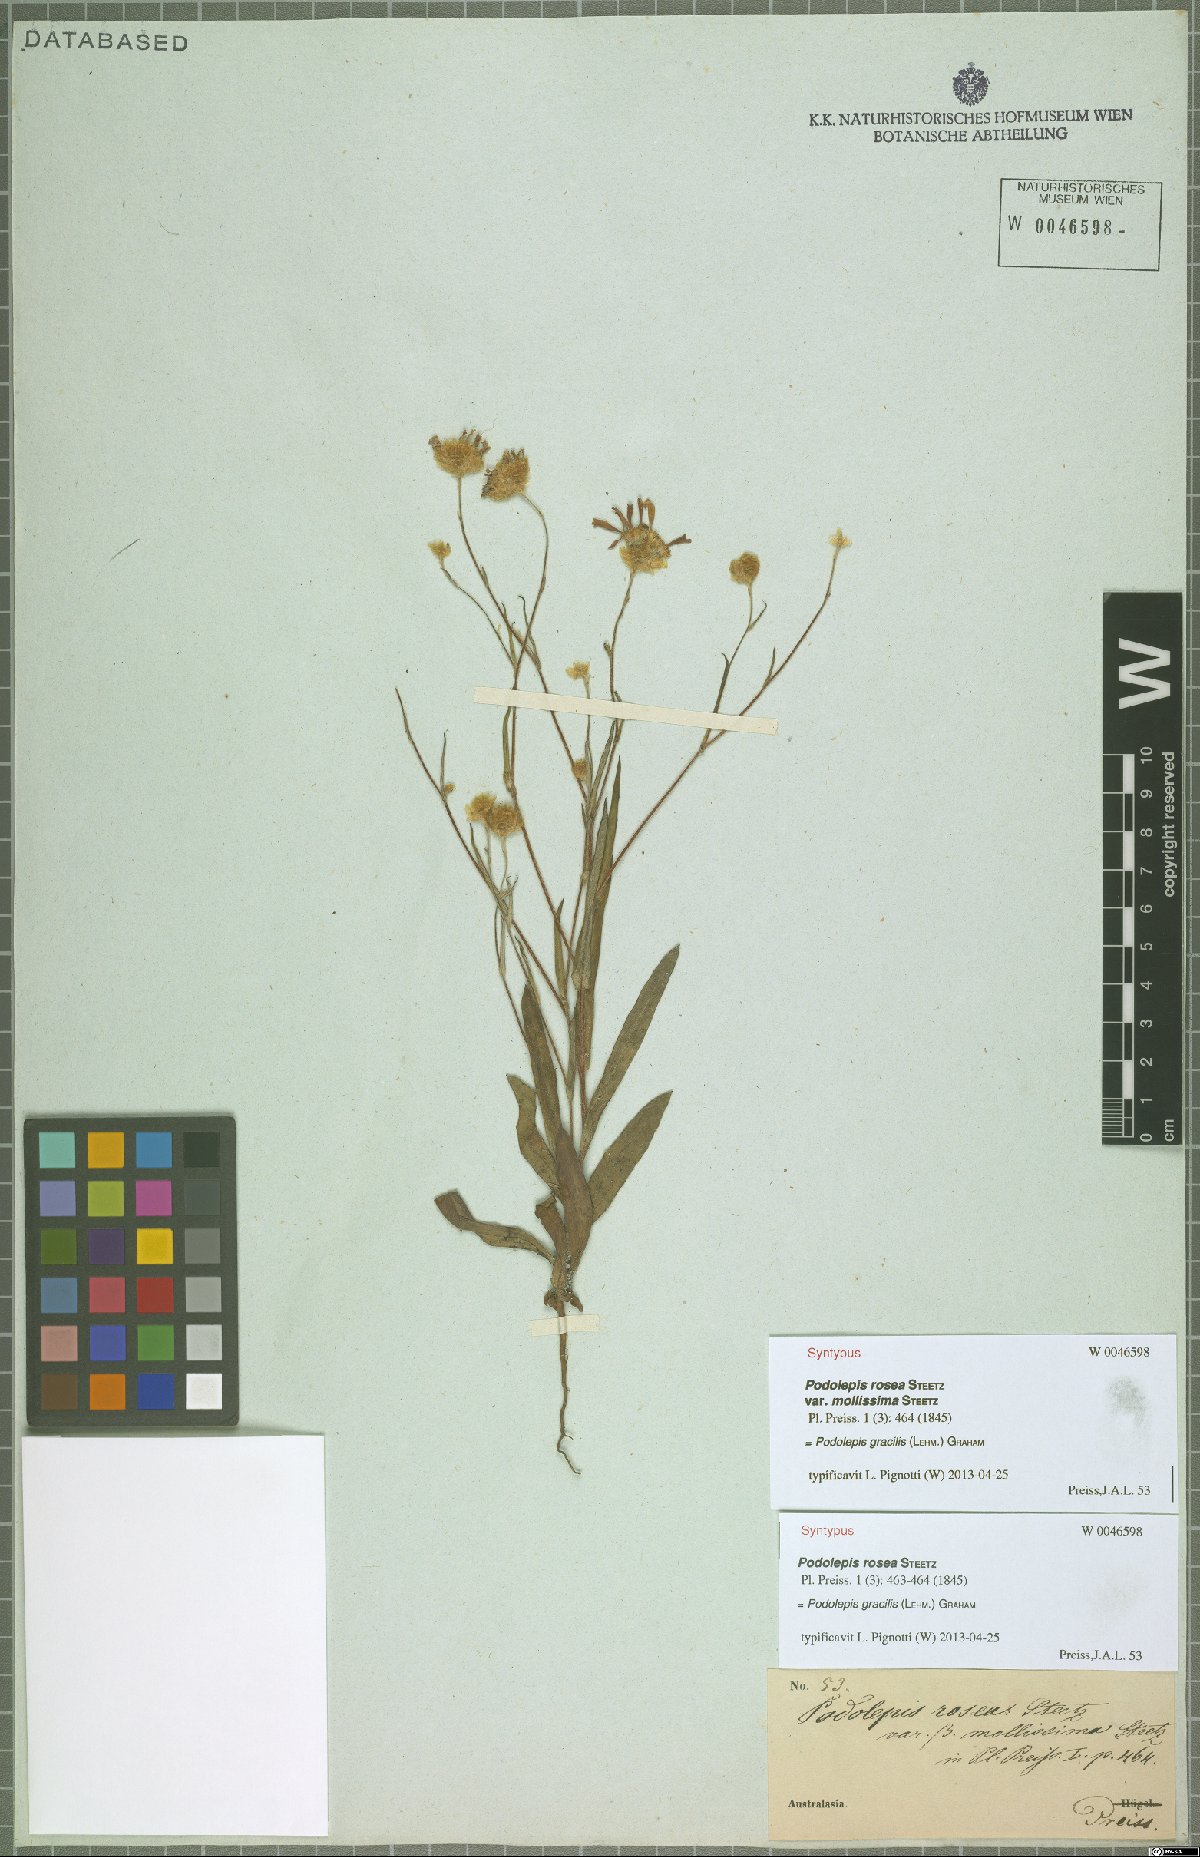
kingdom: Plantae
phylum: Tracheophyta
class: Magnoliopsida
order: Asterales
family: Asteraceae
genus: Podolepis
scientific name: Podolepis gracilis
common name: Slender podolepis
